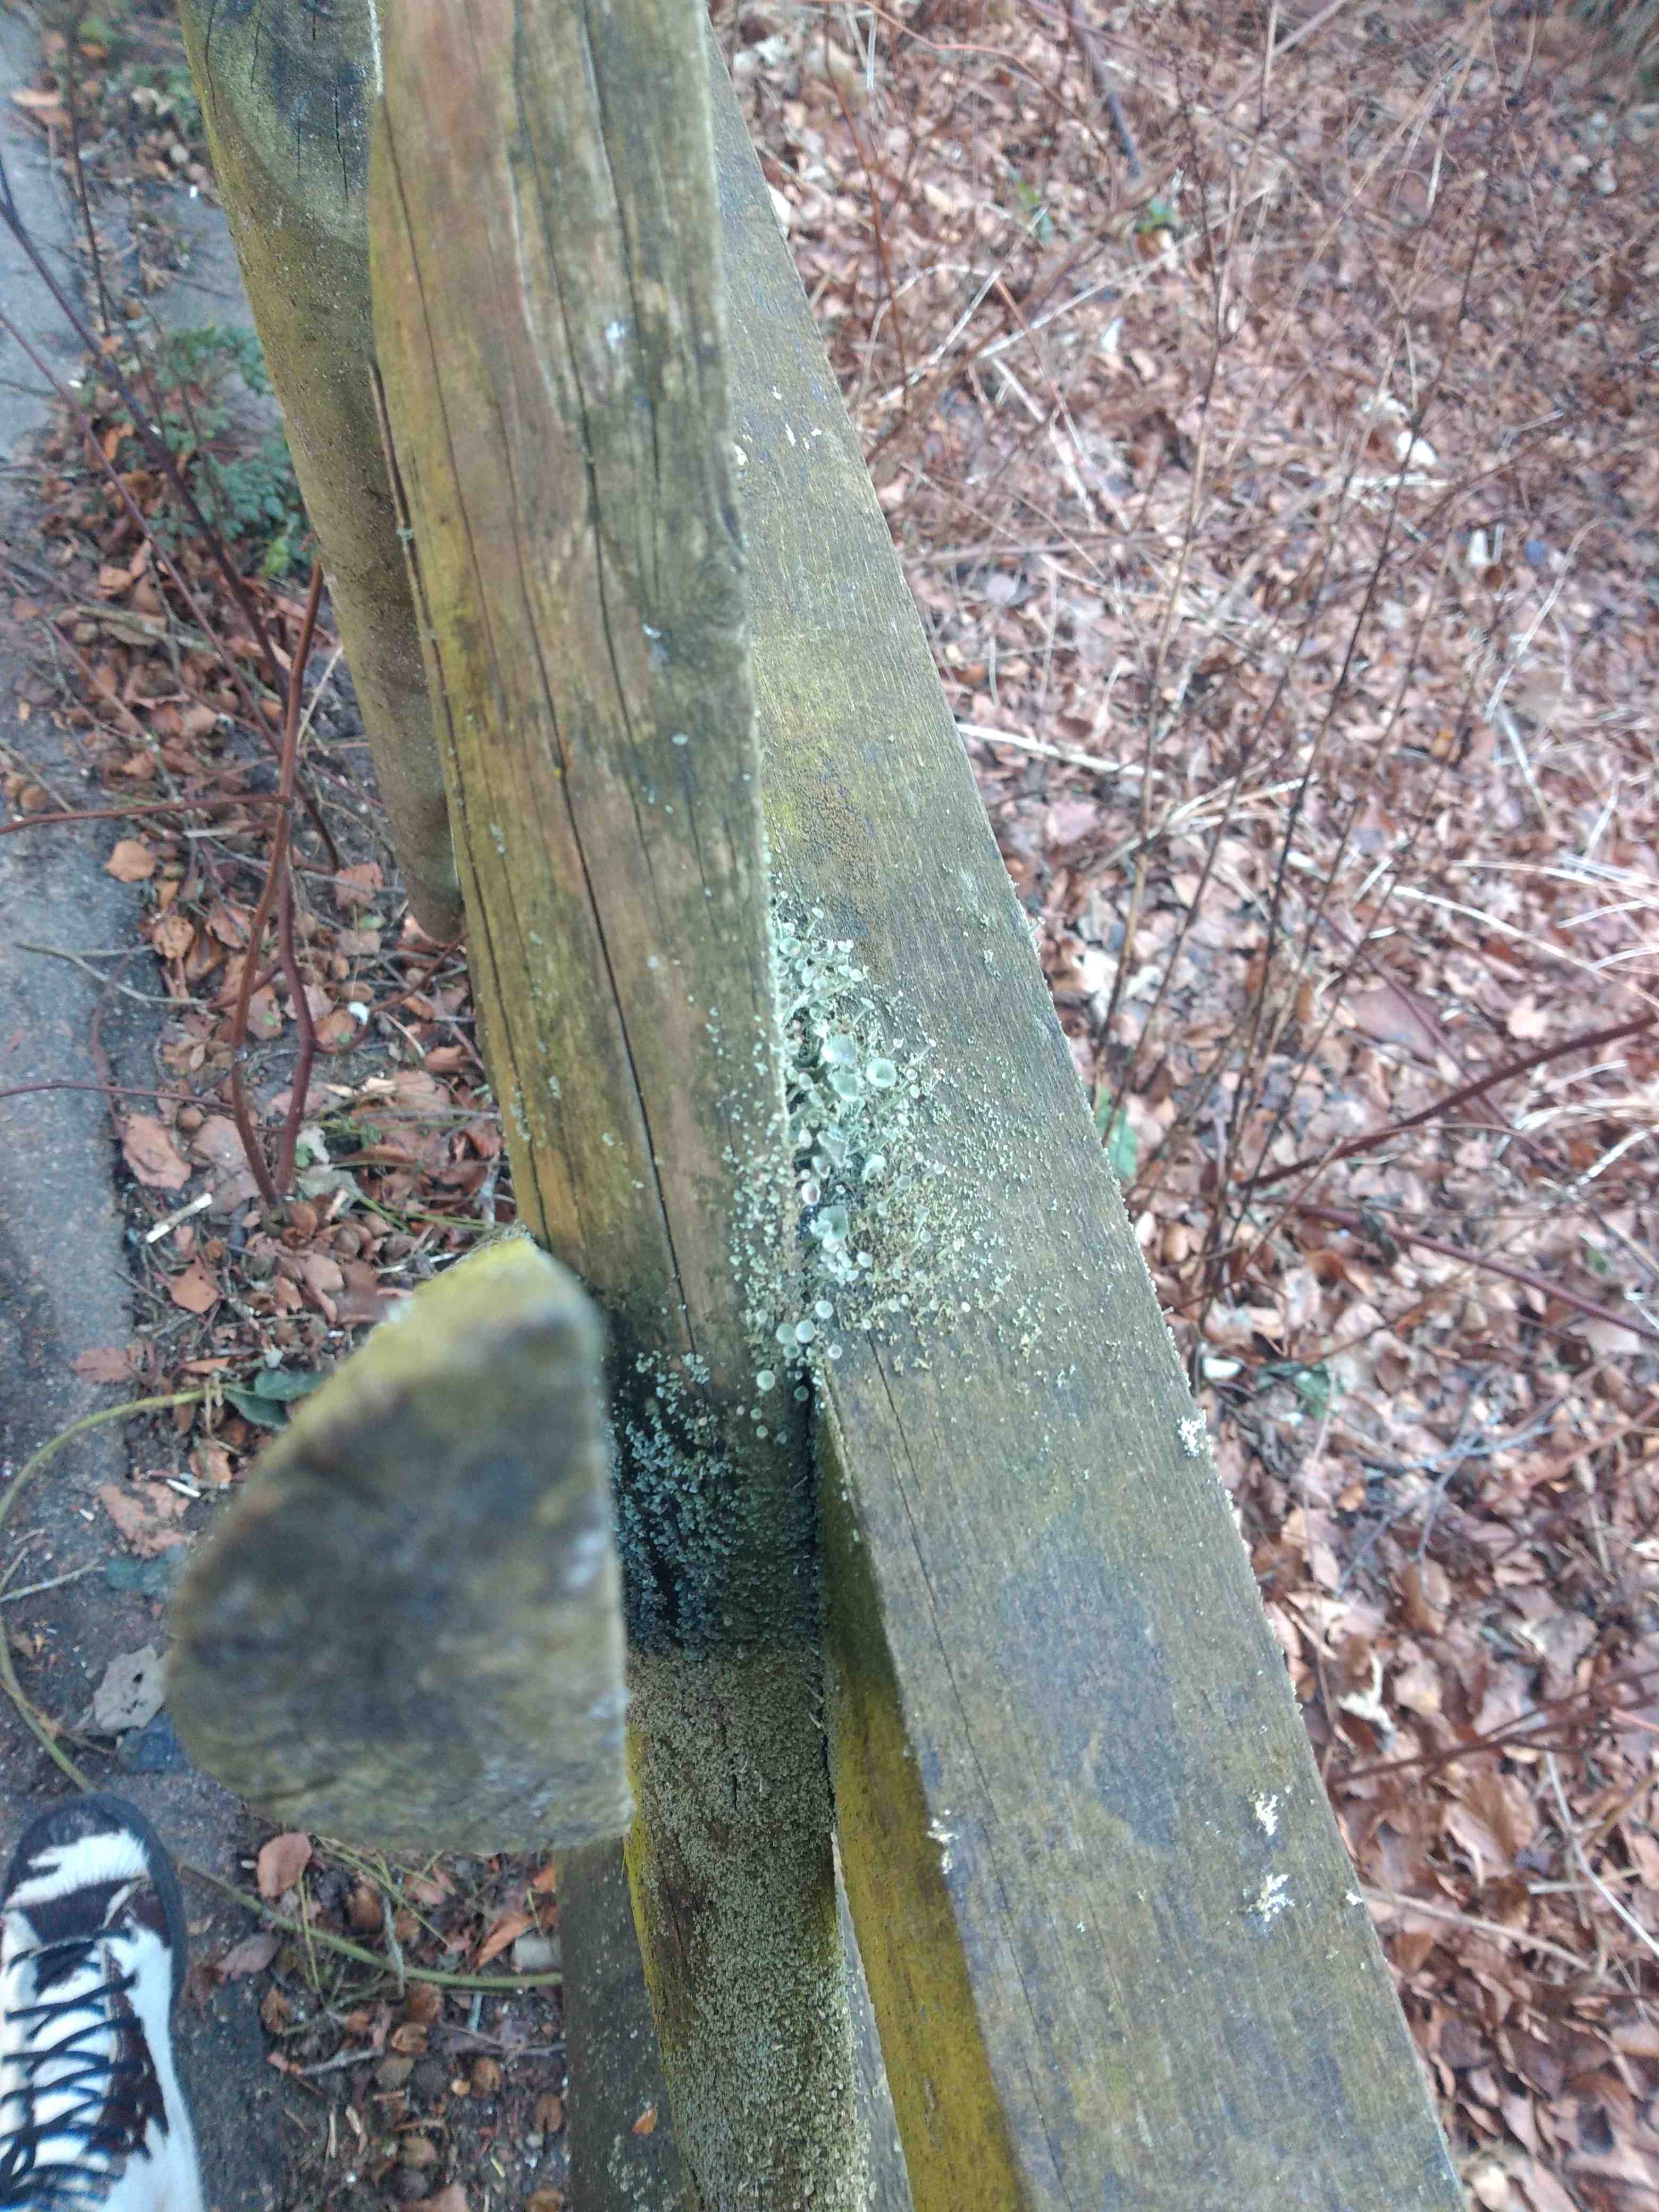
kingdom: Fungi
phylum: Ascomycota
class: Lecanoromycetes
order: Lecanorales
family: Cladoniaceae
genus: Cladonia
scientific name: Cladonia
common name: brungrøn bægerlav
